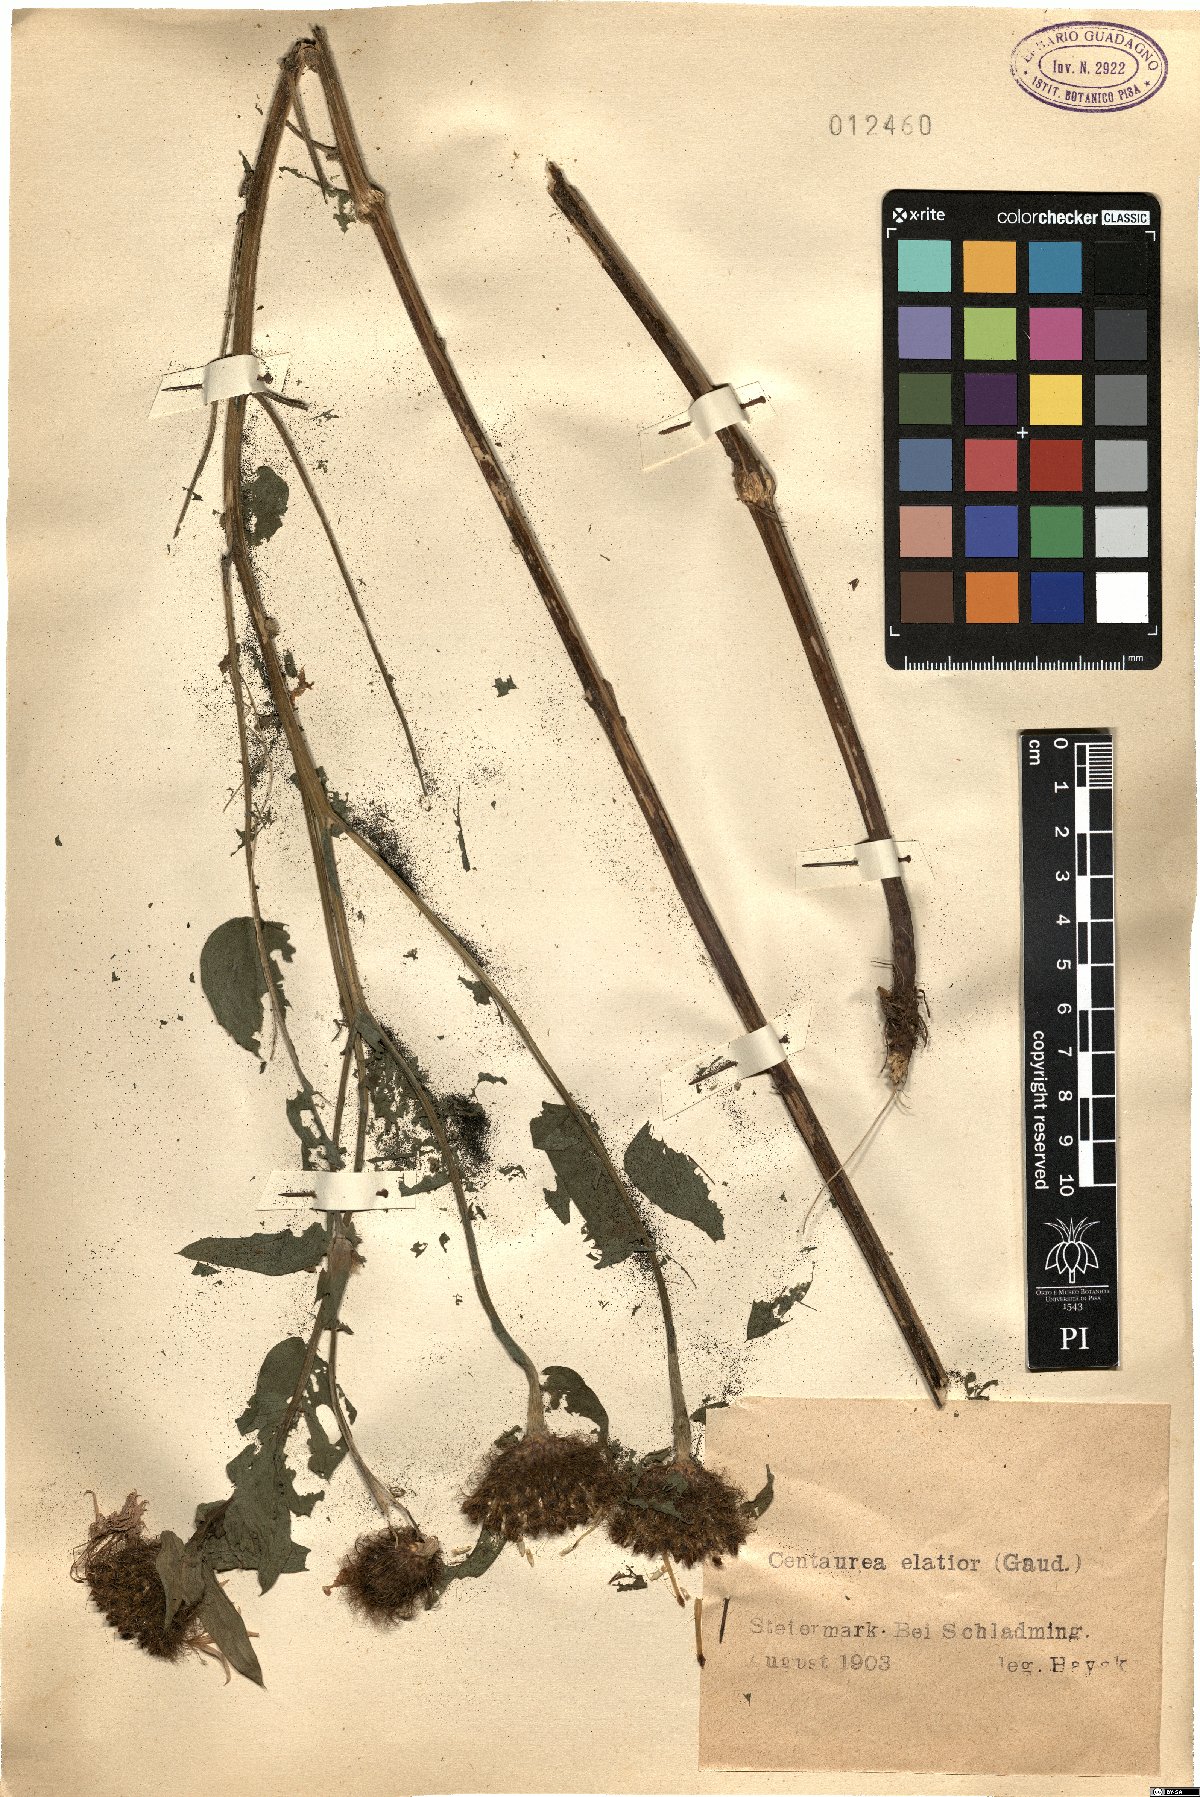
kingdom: Plantae
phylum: Tracheophyta
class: Magnoliopsida
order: Asterales
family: Asteraceae
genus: Centaurea
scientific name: Centaurea
